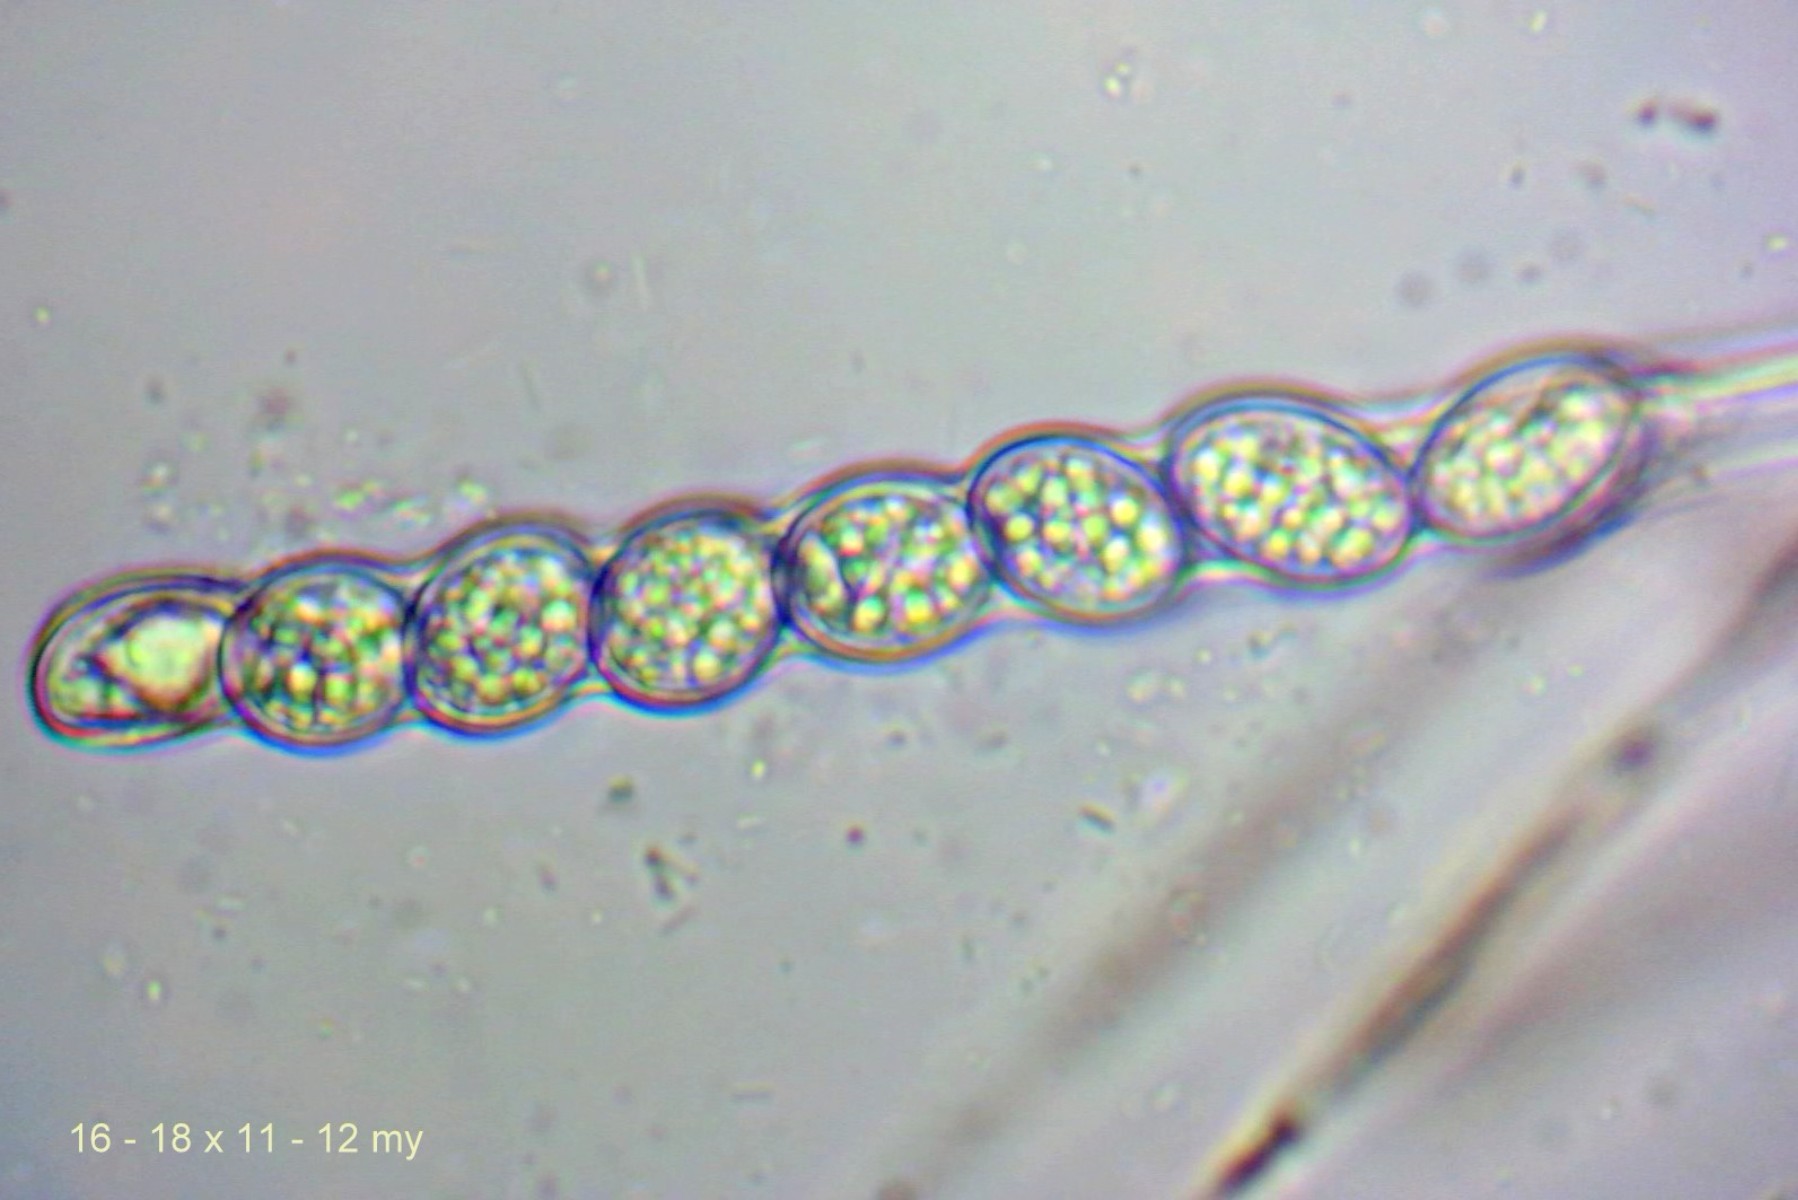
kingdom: Fungi
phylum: Ascomycota
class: Pezizomycetes
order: Pezizales
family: Pyronemataceae
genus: Scutellinia
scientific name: Scutellinia scutellata
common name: frynset skjoldbæger
